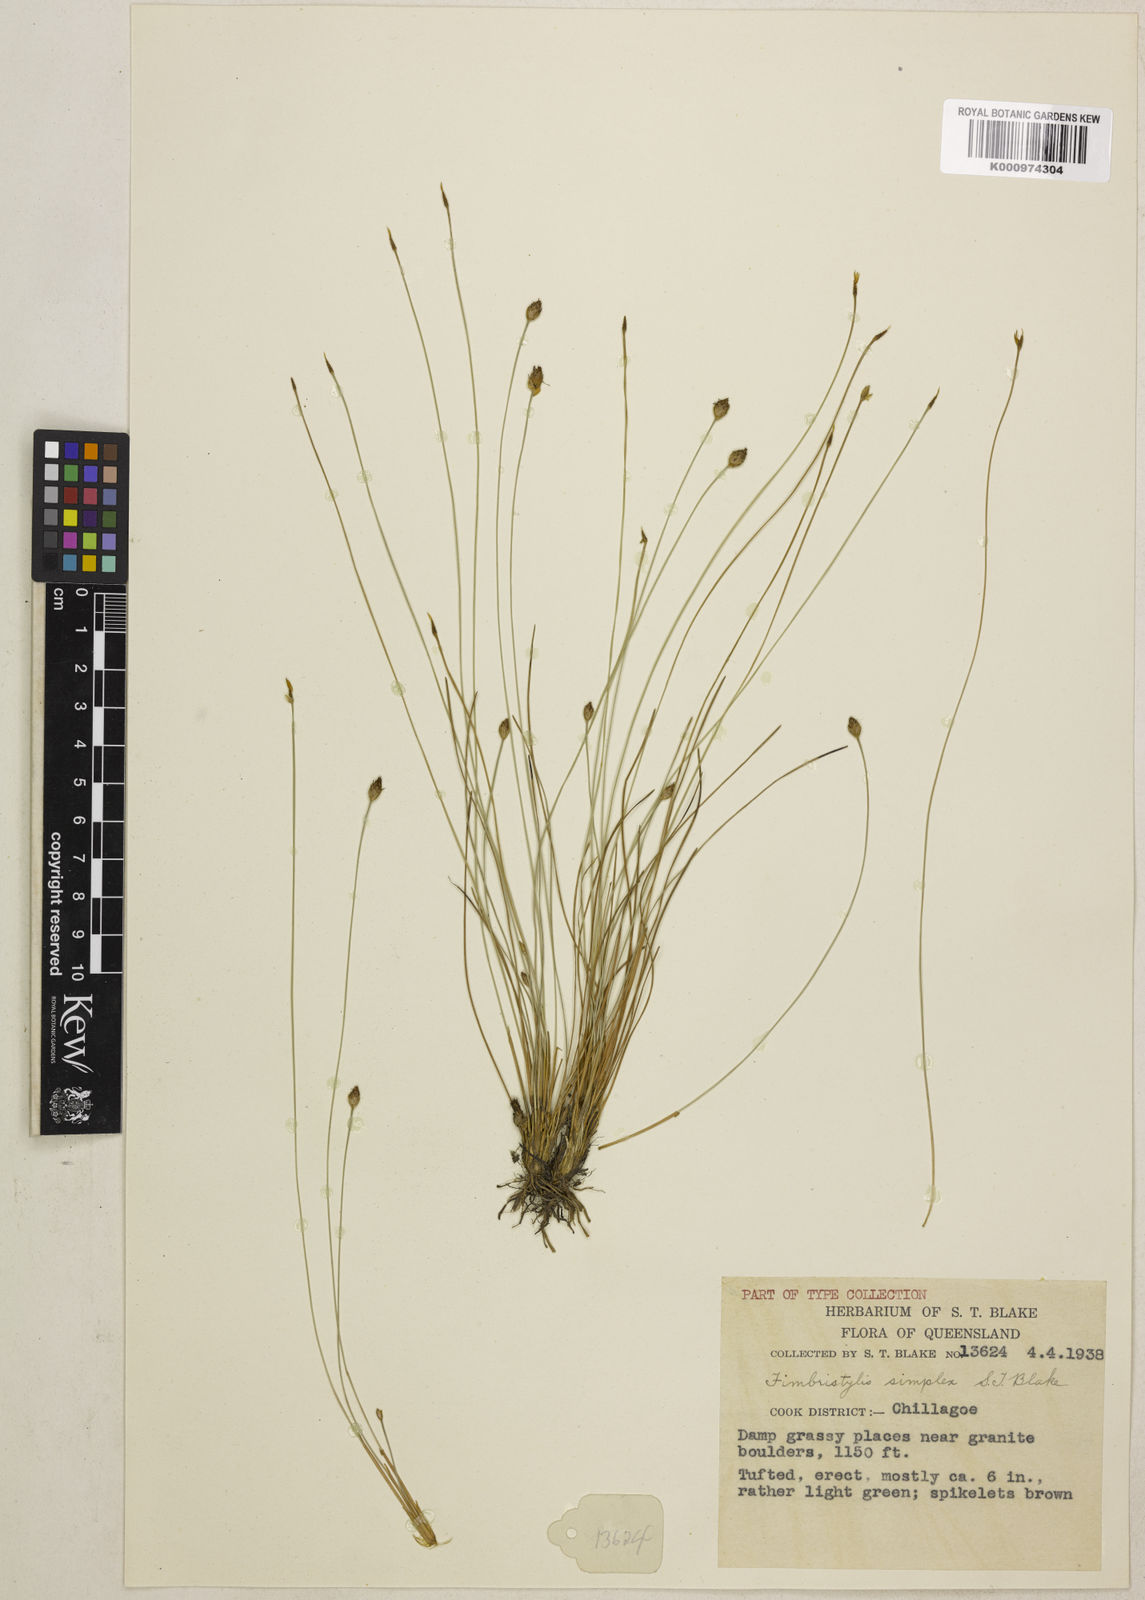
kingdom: Plantae
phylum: Tracheophyta
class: Liliopsida
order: Poales
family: Cyperaceae
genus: Fimbristylis
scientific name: Fimbristylis simplex
